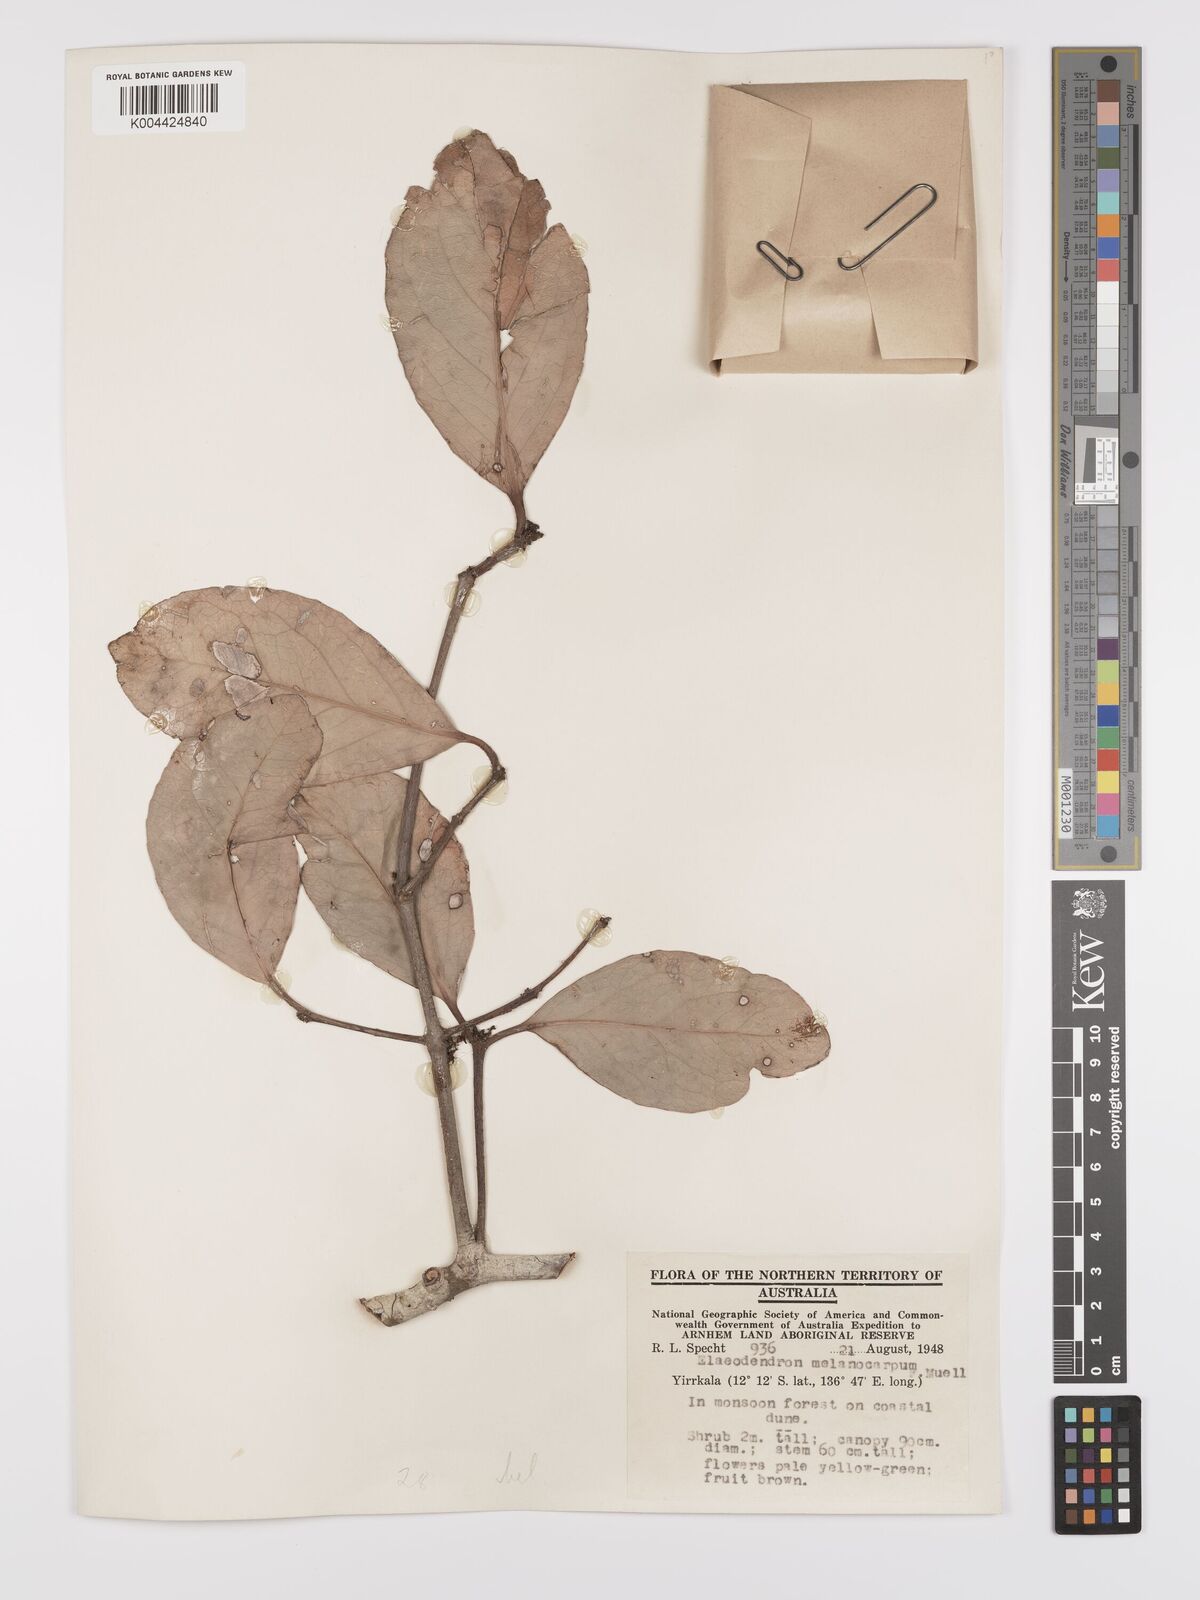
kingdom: Plantae
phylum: Tracheophyta
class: Magnoliopsida
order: Celastrales
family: Celastraceae
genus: Elaeodendron
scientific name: Elaeodendron melanocarpum
